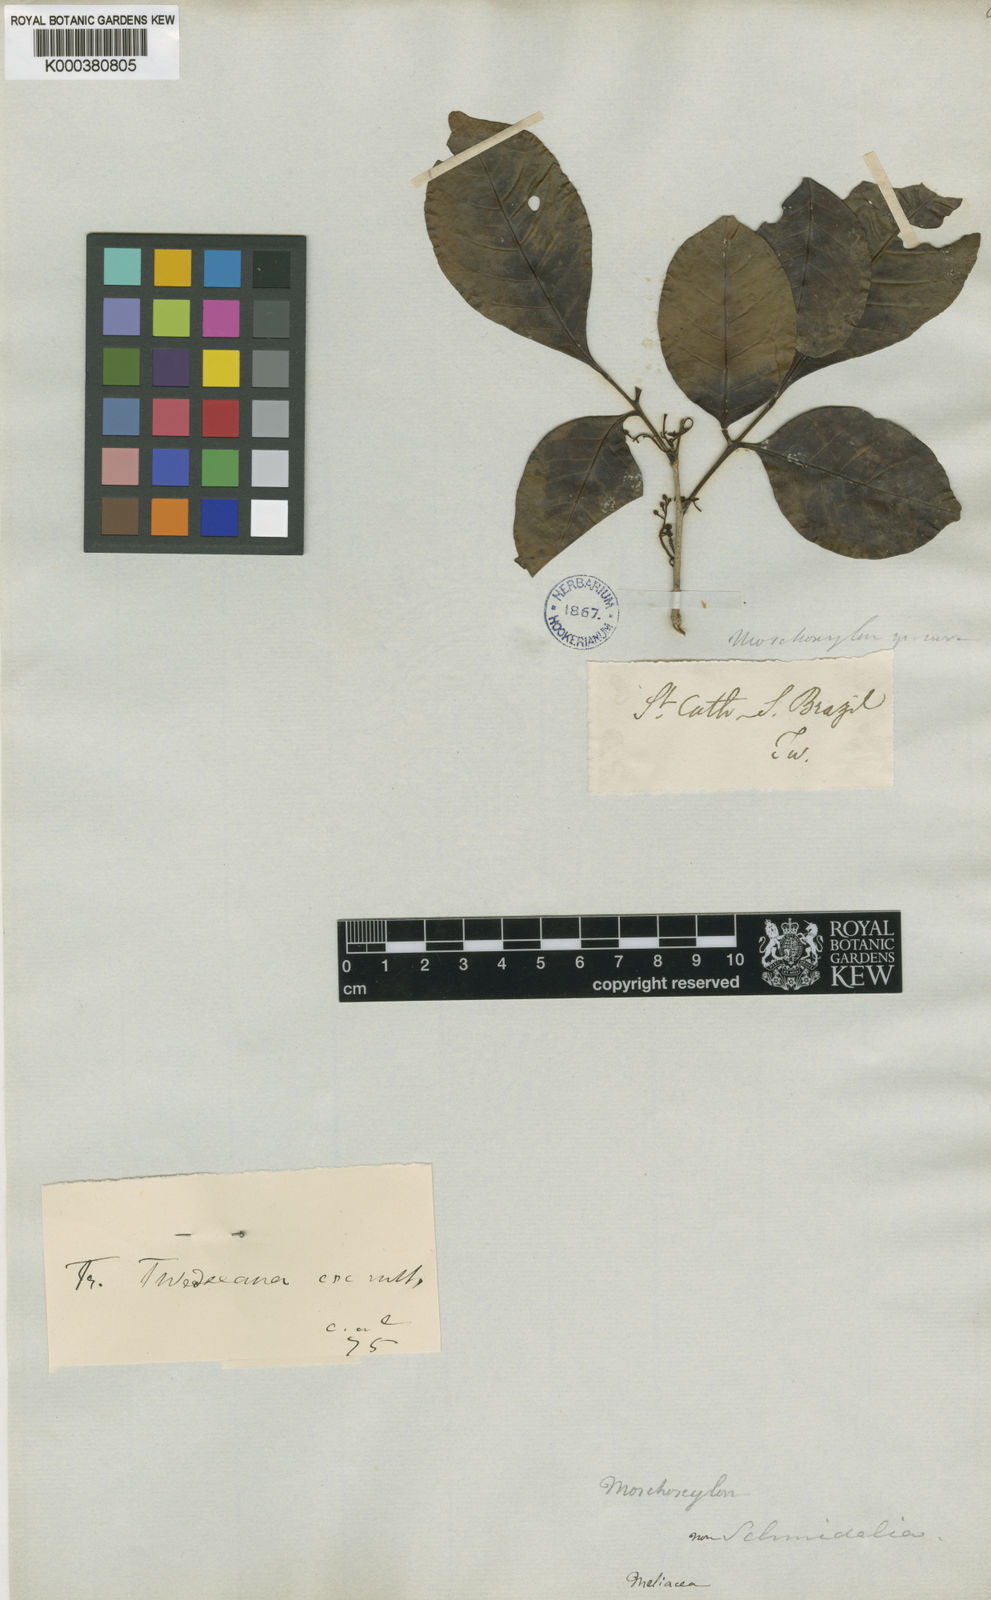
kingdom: Plantae
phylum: Tracheophyta
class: Magnoliopsida
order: Sapindales
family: Meliaceae
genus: Trichilia
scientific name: Trichilia blanchetii
